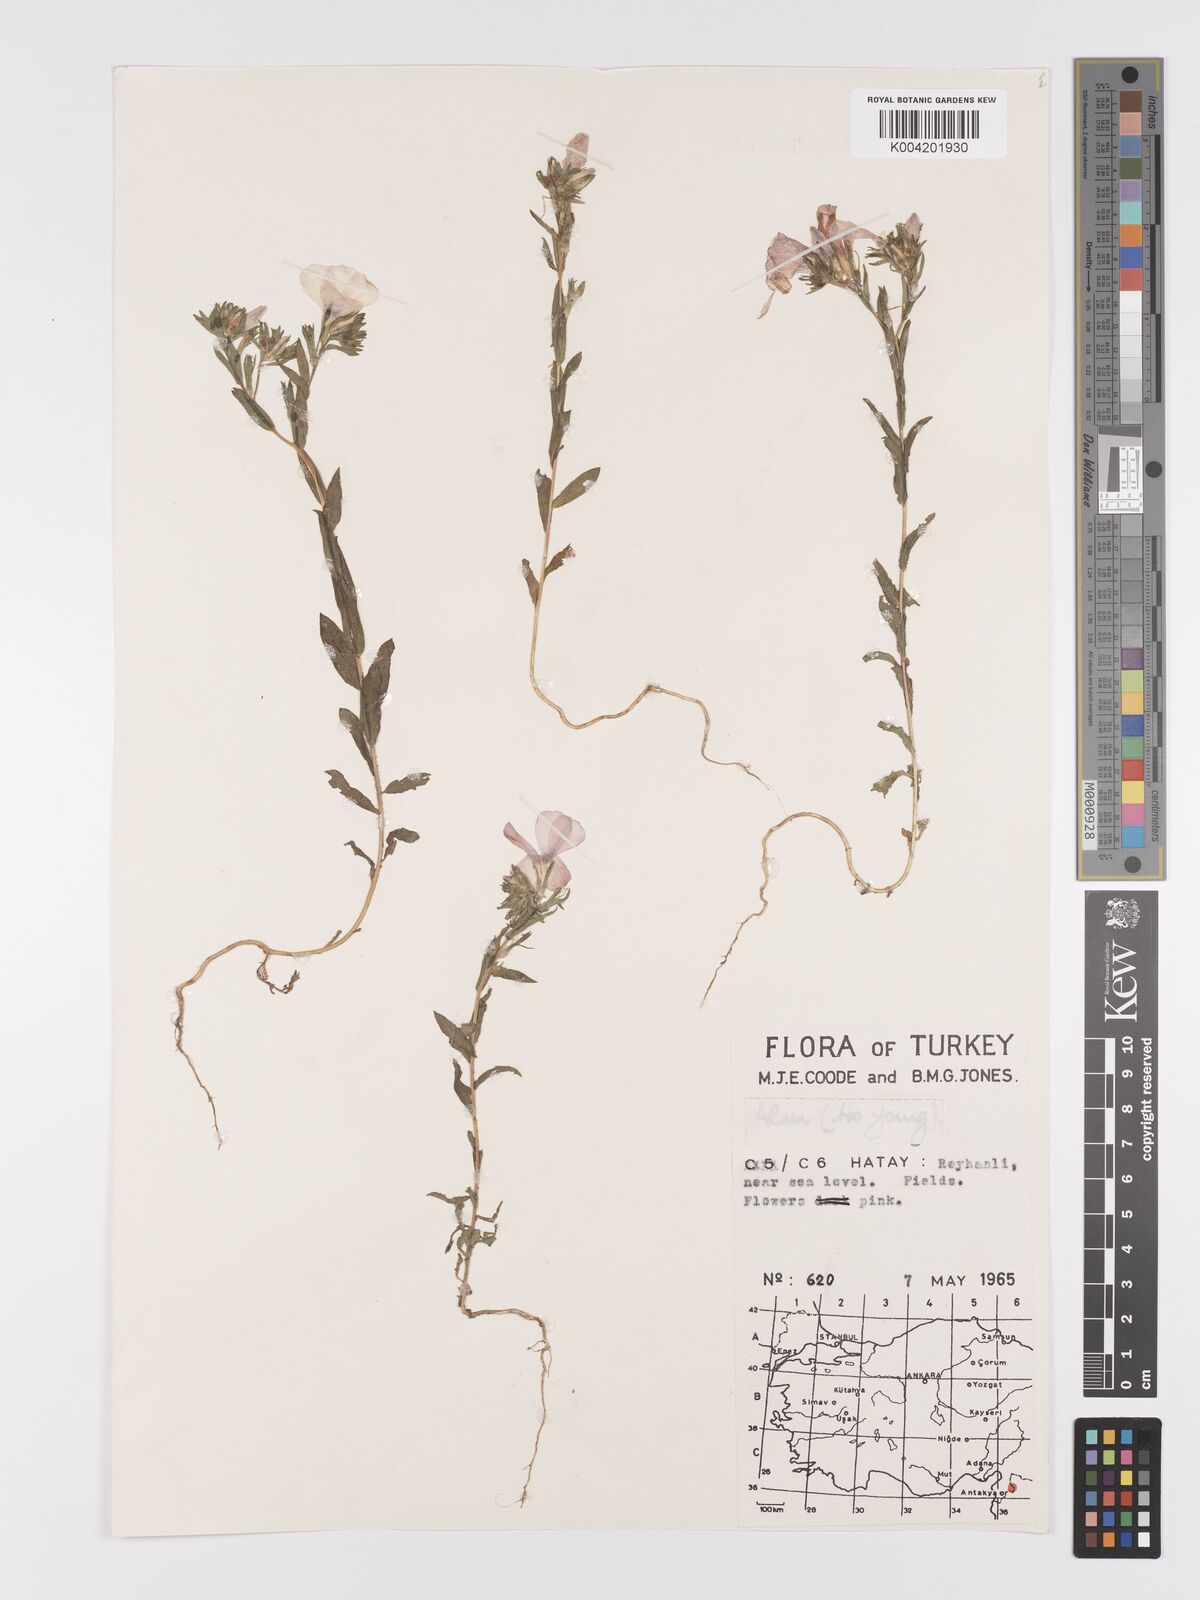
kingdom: Plantae
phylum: Tracheophyta
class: Magnoliopsida
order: Malpighiales
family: Linaceae
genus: Linum
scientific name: Linum
